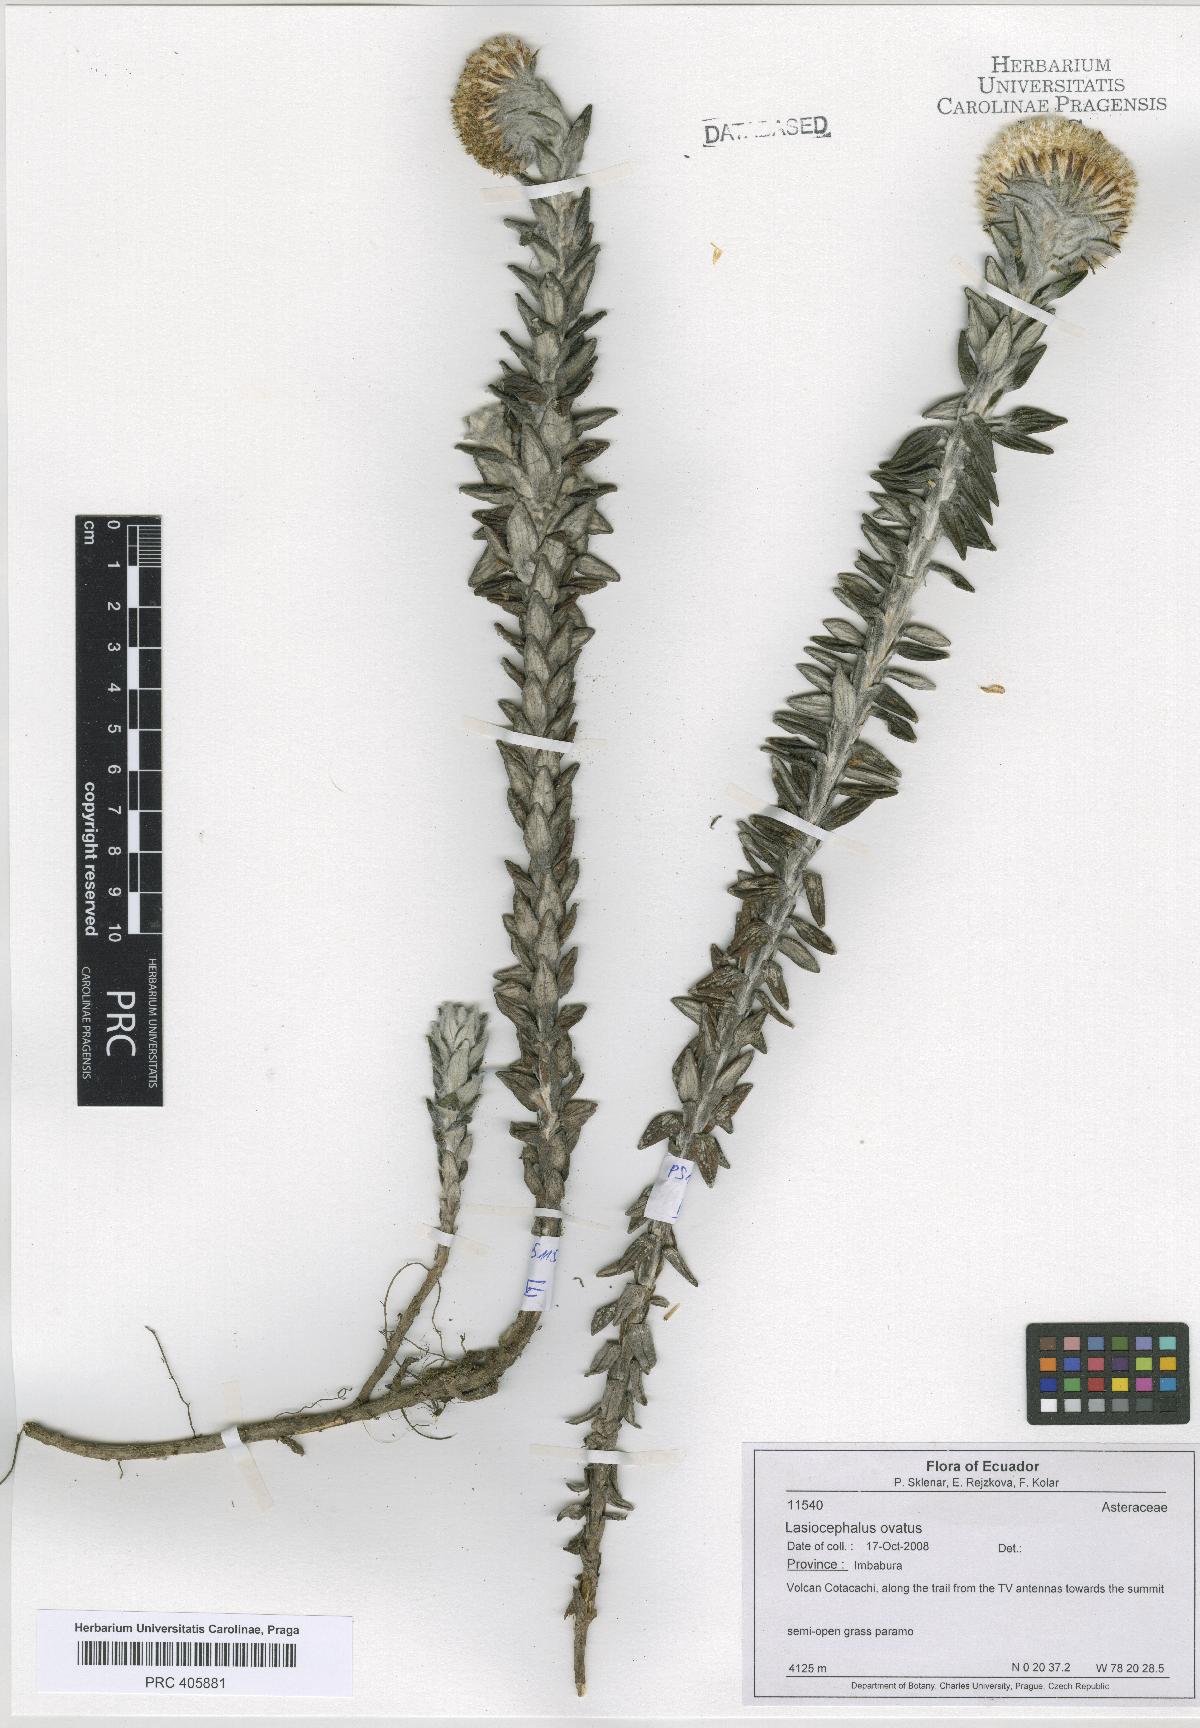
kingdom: Plantae
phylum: Tracheophyta
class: Magnoliopsida
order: Asterales
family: Asteraceae
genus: Lasiocephalus
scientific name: Lasiocephalus ovatus
